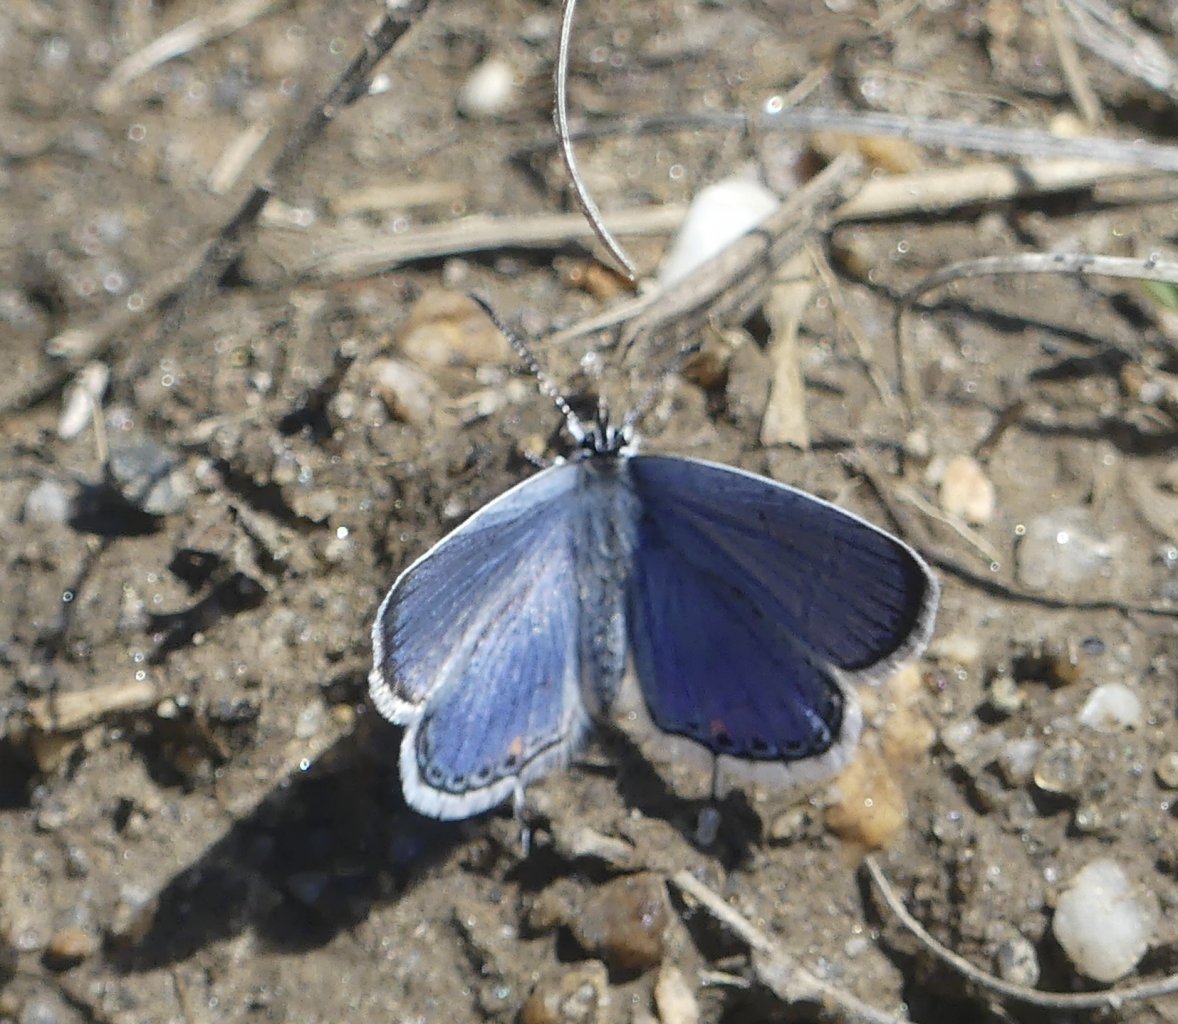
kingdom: Animalia
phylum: Arthropoda
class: Insecta
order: Lepidoptera
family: Lycaenidae
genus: Elkalyce
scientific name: Elkalyce comyntas
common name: Eastern Tailed-Blue
